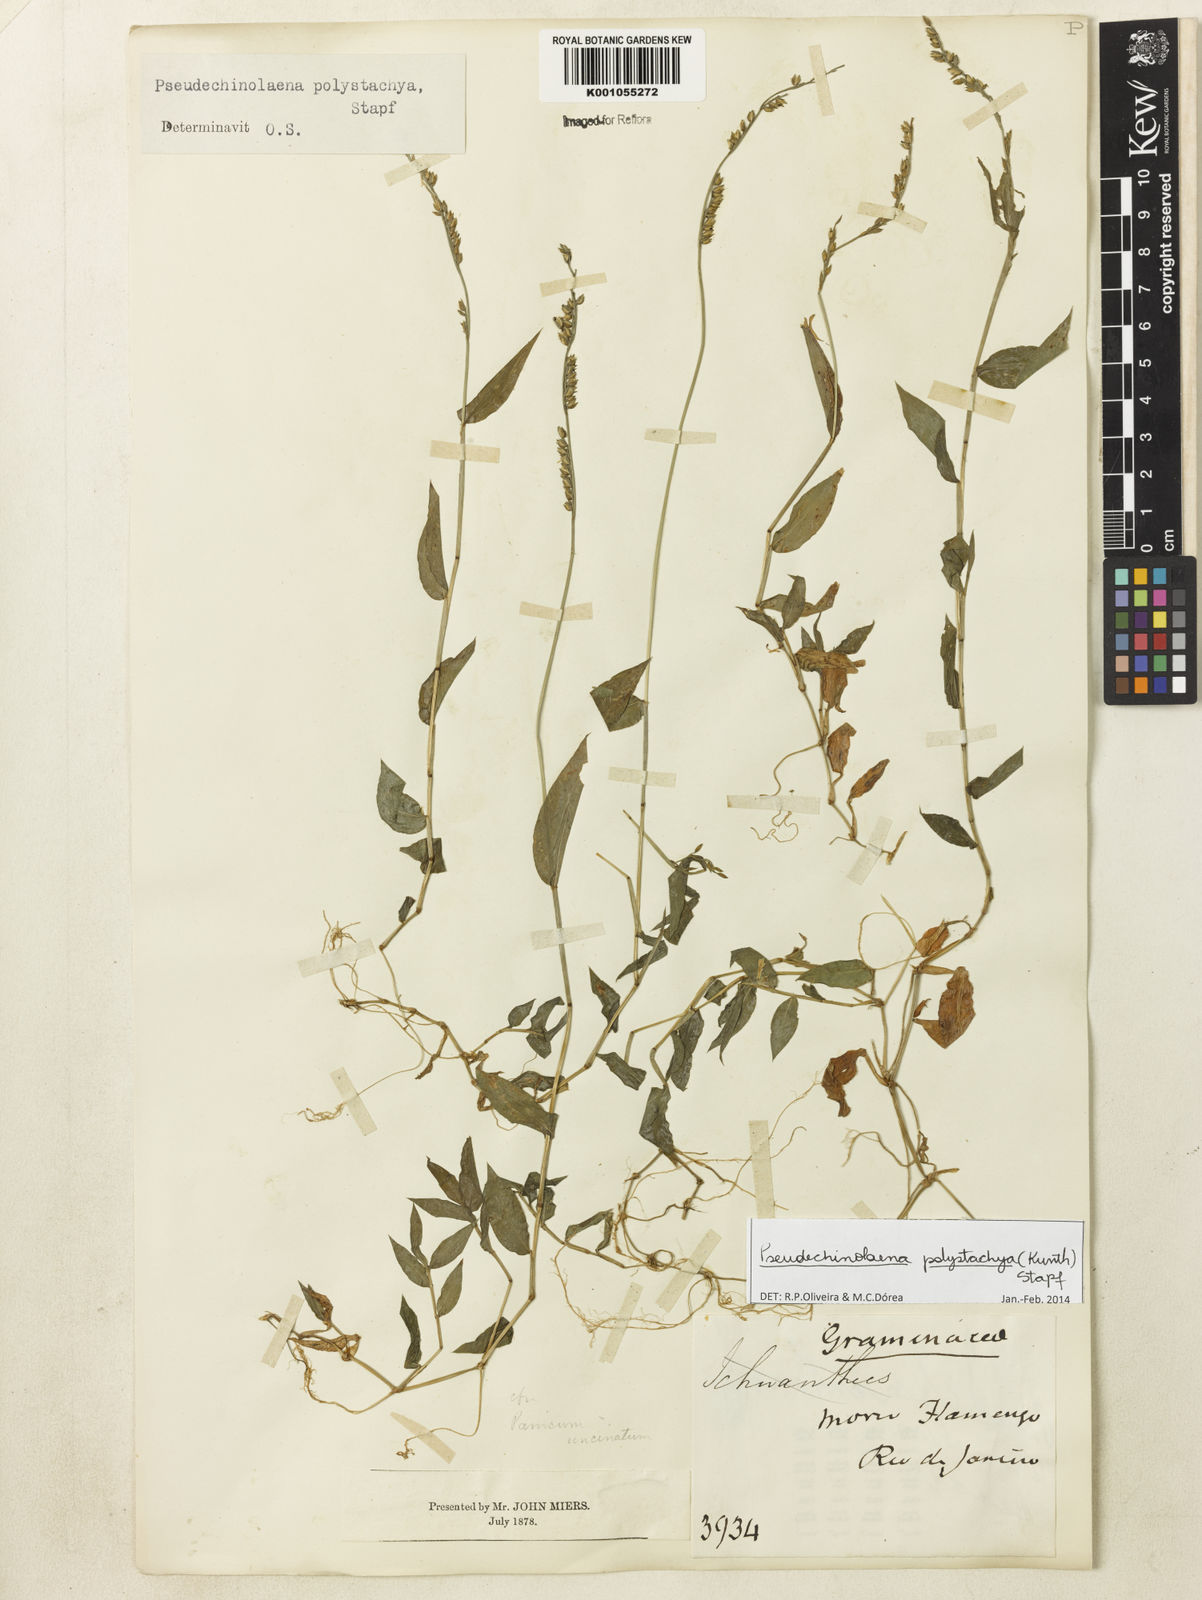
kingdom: Plantae
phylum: Tracheophyta
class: Liliopsida
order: Poales
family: Poaceae
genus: Pseudechinolaena
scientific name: Pseudechinolaena polystachya
